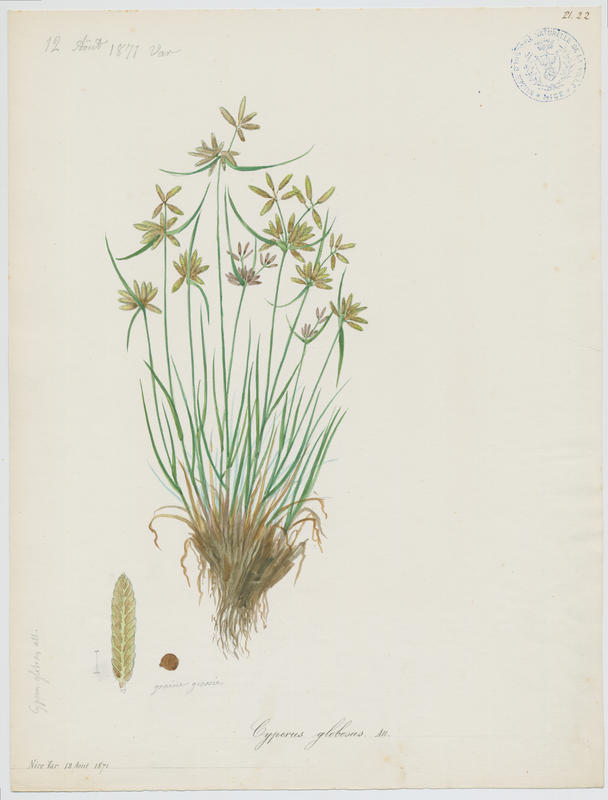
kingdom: Plantae
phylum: Tracheophyta
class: Liliopsida
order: Poales
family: Cyperaceae
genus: Cyperus
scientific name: Cyperus flavidus
